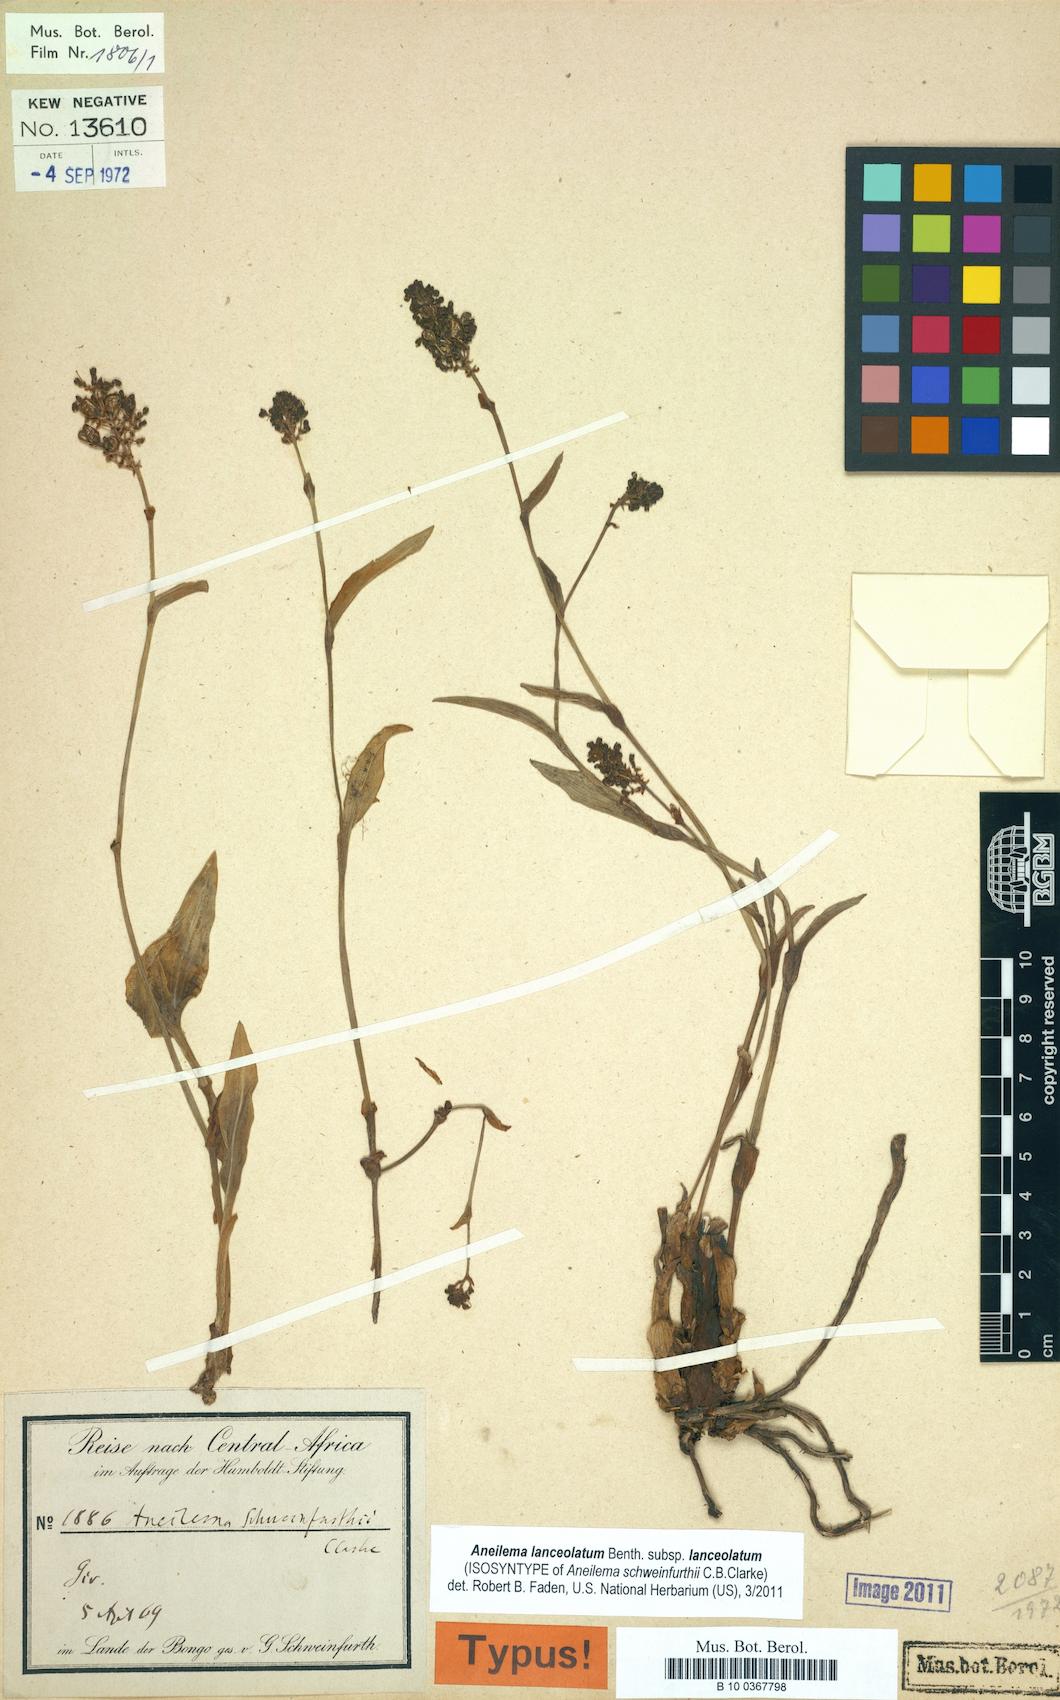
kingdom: Plantae
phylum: Tracheophyta
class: Liliopsida
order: Commelinales
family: Commelinaceae
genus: Aneilema
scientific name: Aneilema lanceolatum
